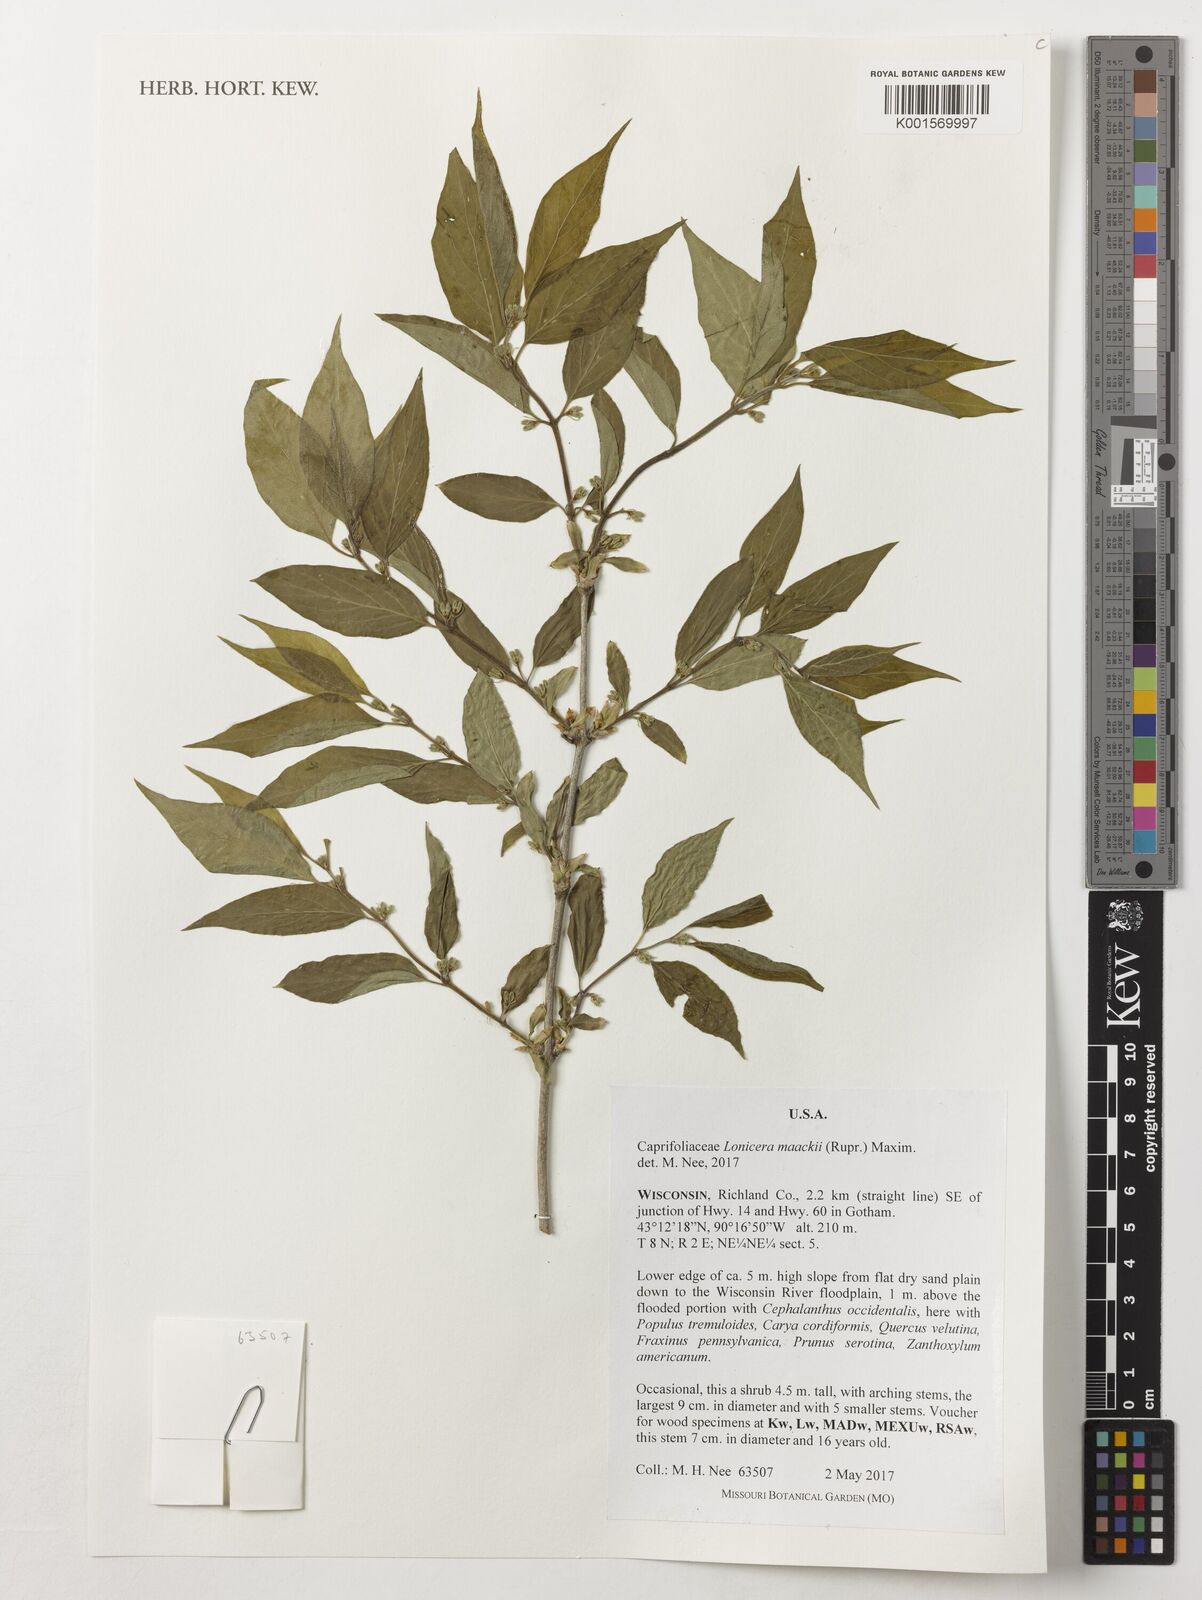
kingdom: Plantae
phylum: Tracheophyta
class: Magnoliopsida
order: Dipsacales
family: Caprifoliaceae
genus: Lonicera
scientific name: Lonicera maackii
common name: Amur honeysuckle
